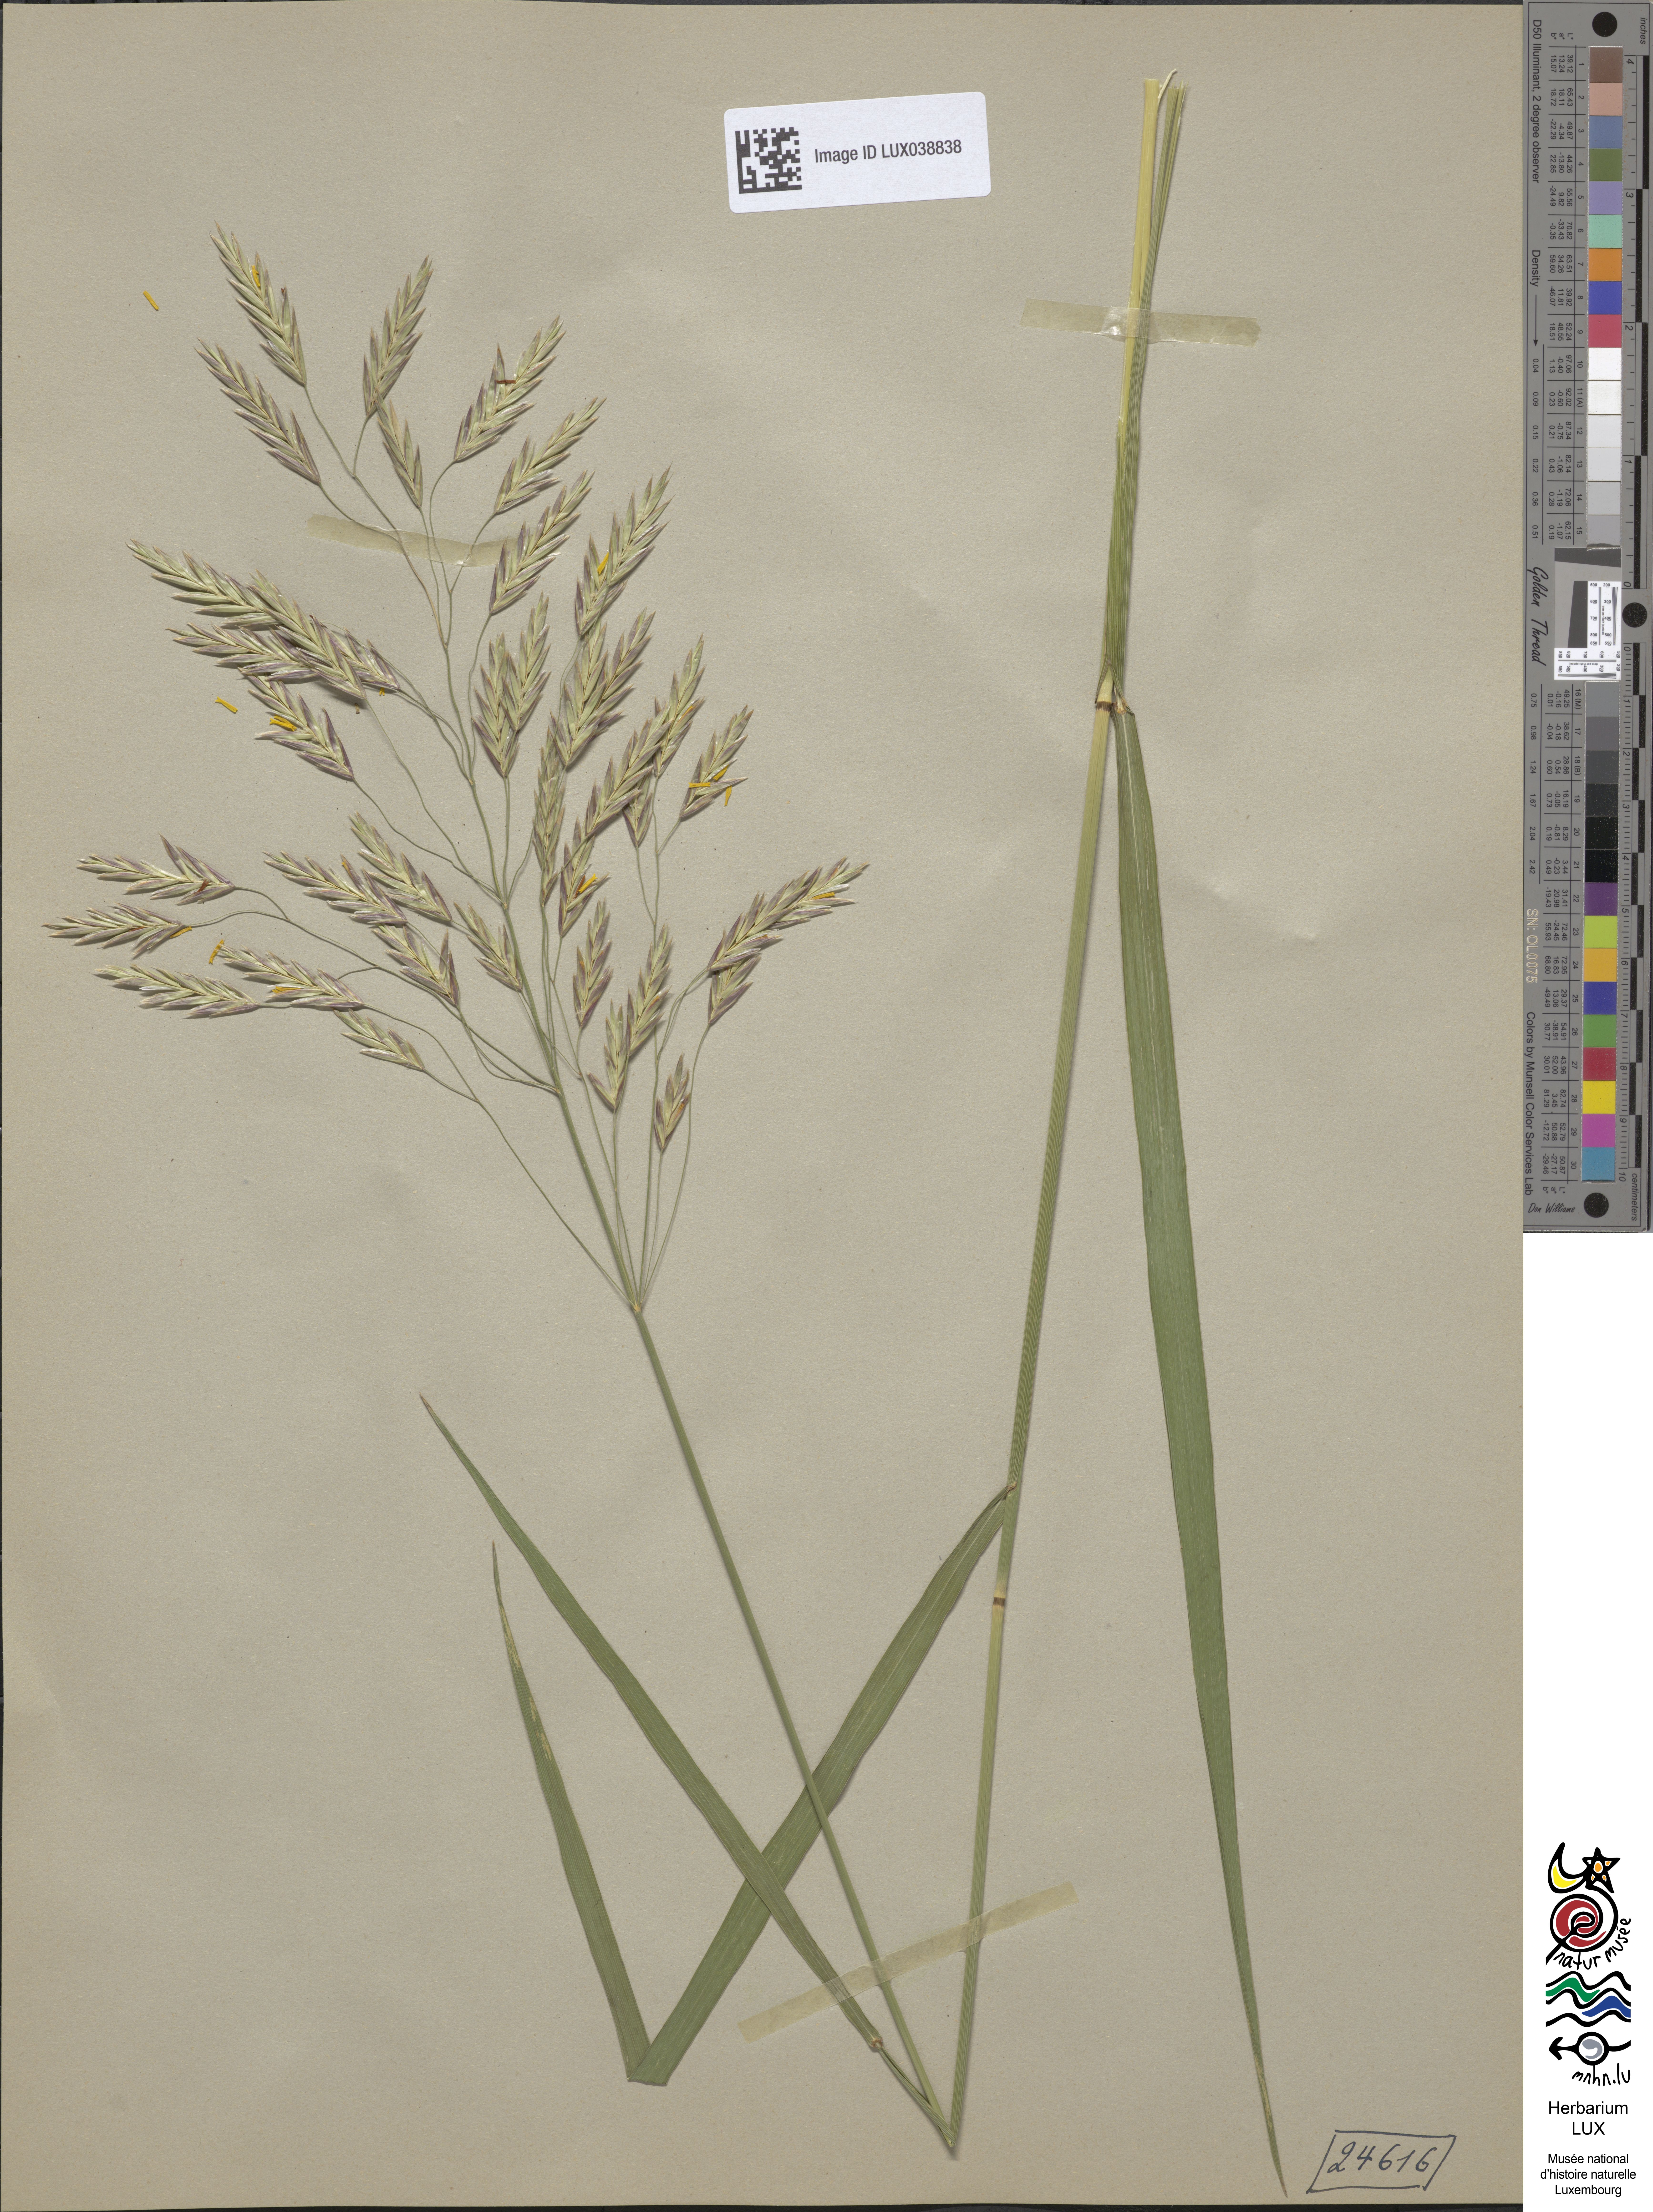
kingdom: Plantae
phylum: Tracheophyta
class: Liliopsida
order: Poales
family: Poaceae
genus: Bromus
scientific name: Bromus inermis
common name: Smooth brome
